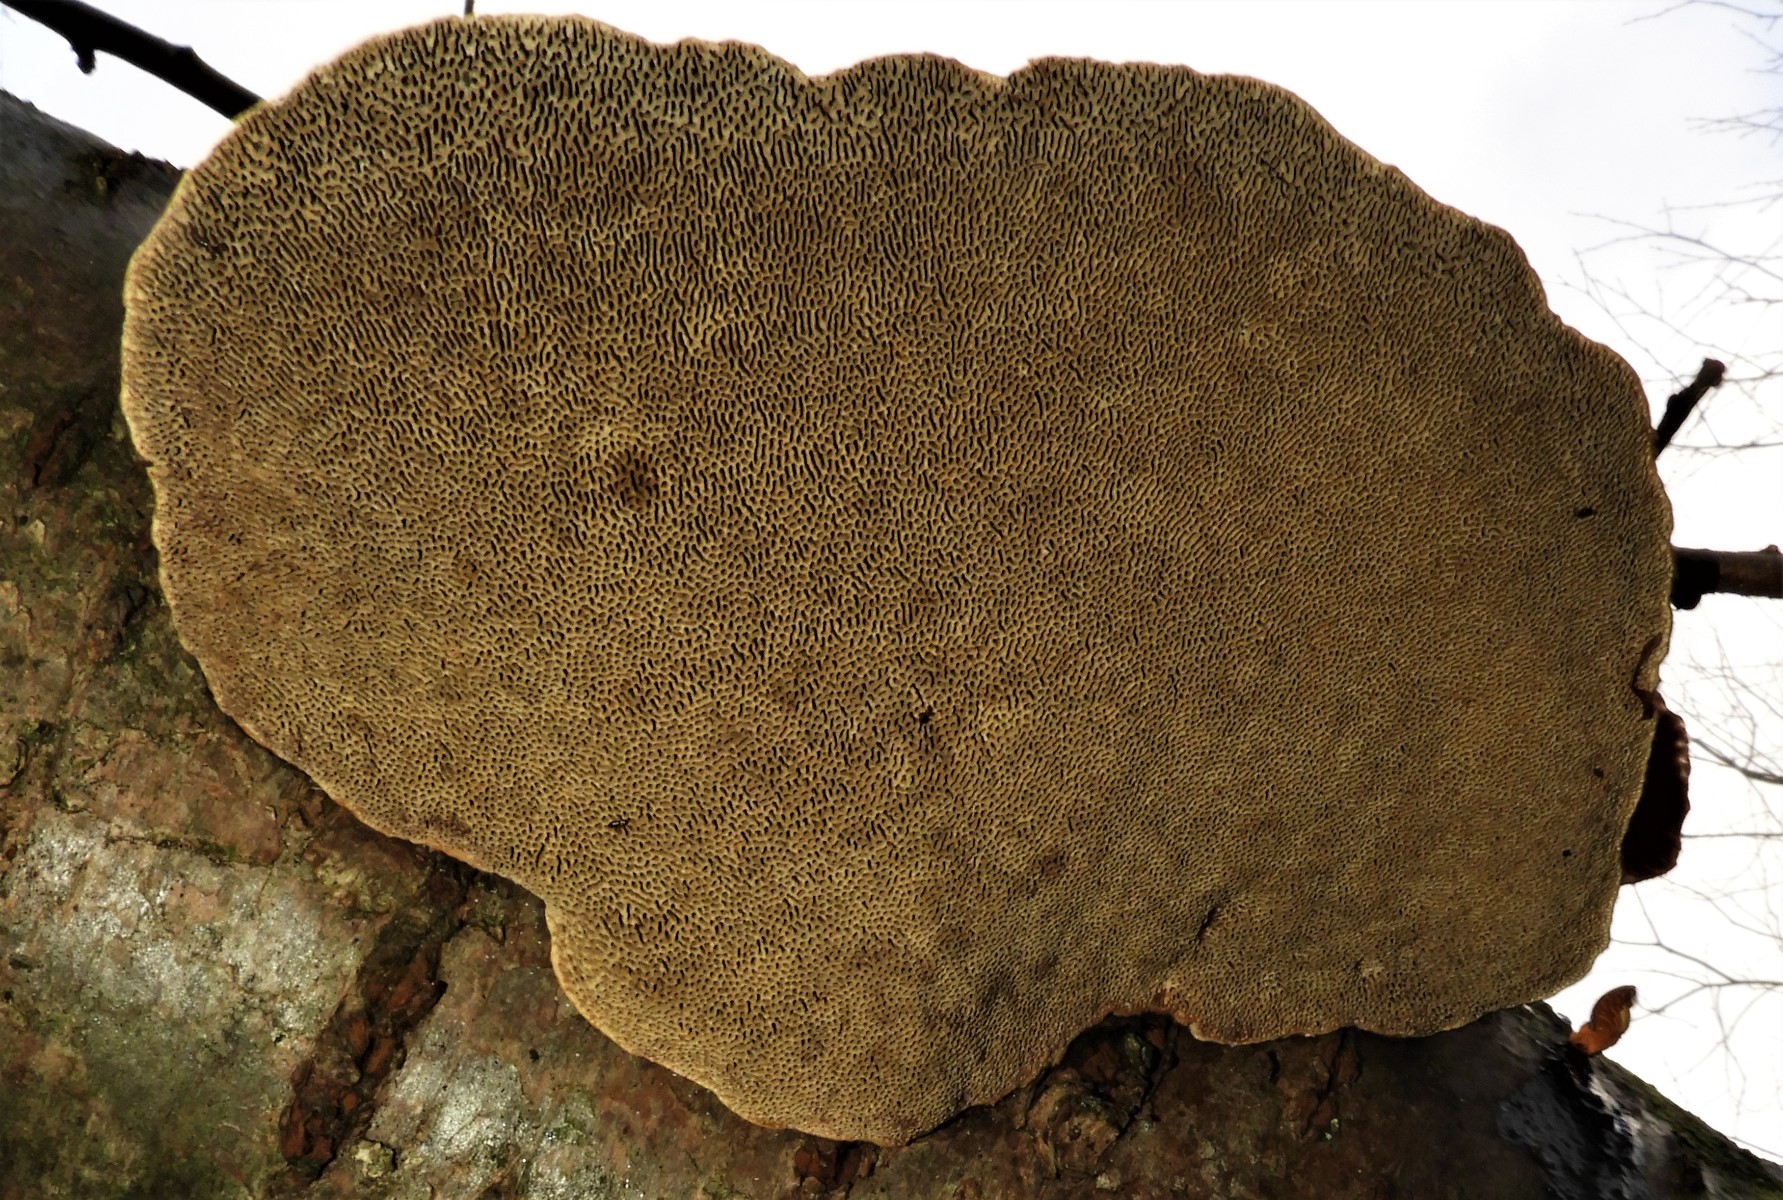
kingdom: Fungi
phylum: Basidiomycota
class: Agaricomycetes
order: Polyporales
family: Polyporaceae
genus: Daedaleopsis
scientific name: Daedaleopsis confragosa
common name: rødmende læderporesvamp
